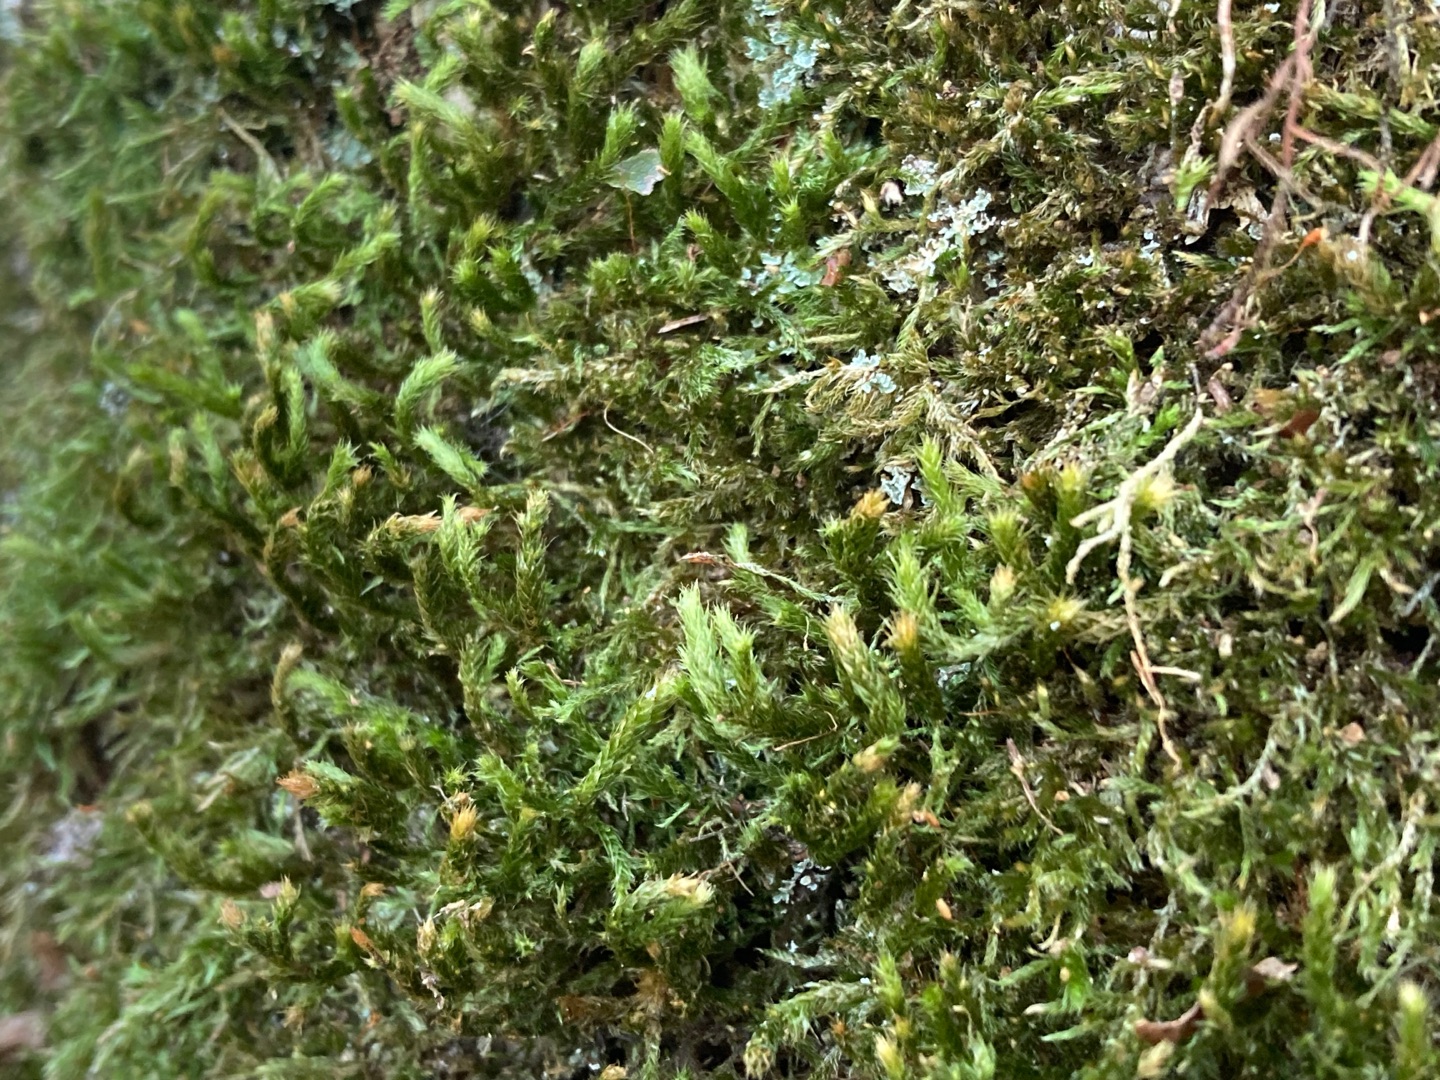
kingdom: Plantae
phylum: Bryophyta
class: Bryopsida
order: Hypnales
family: Antitrichiaceae
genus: Antitrichia
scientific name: Antitrichia curtipendula
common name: Åben krogtand
